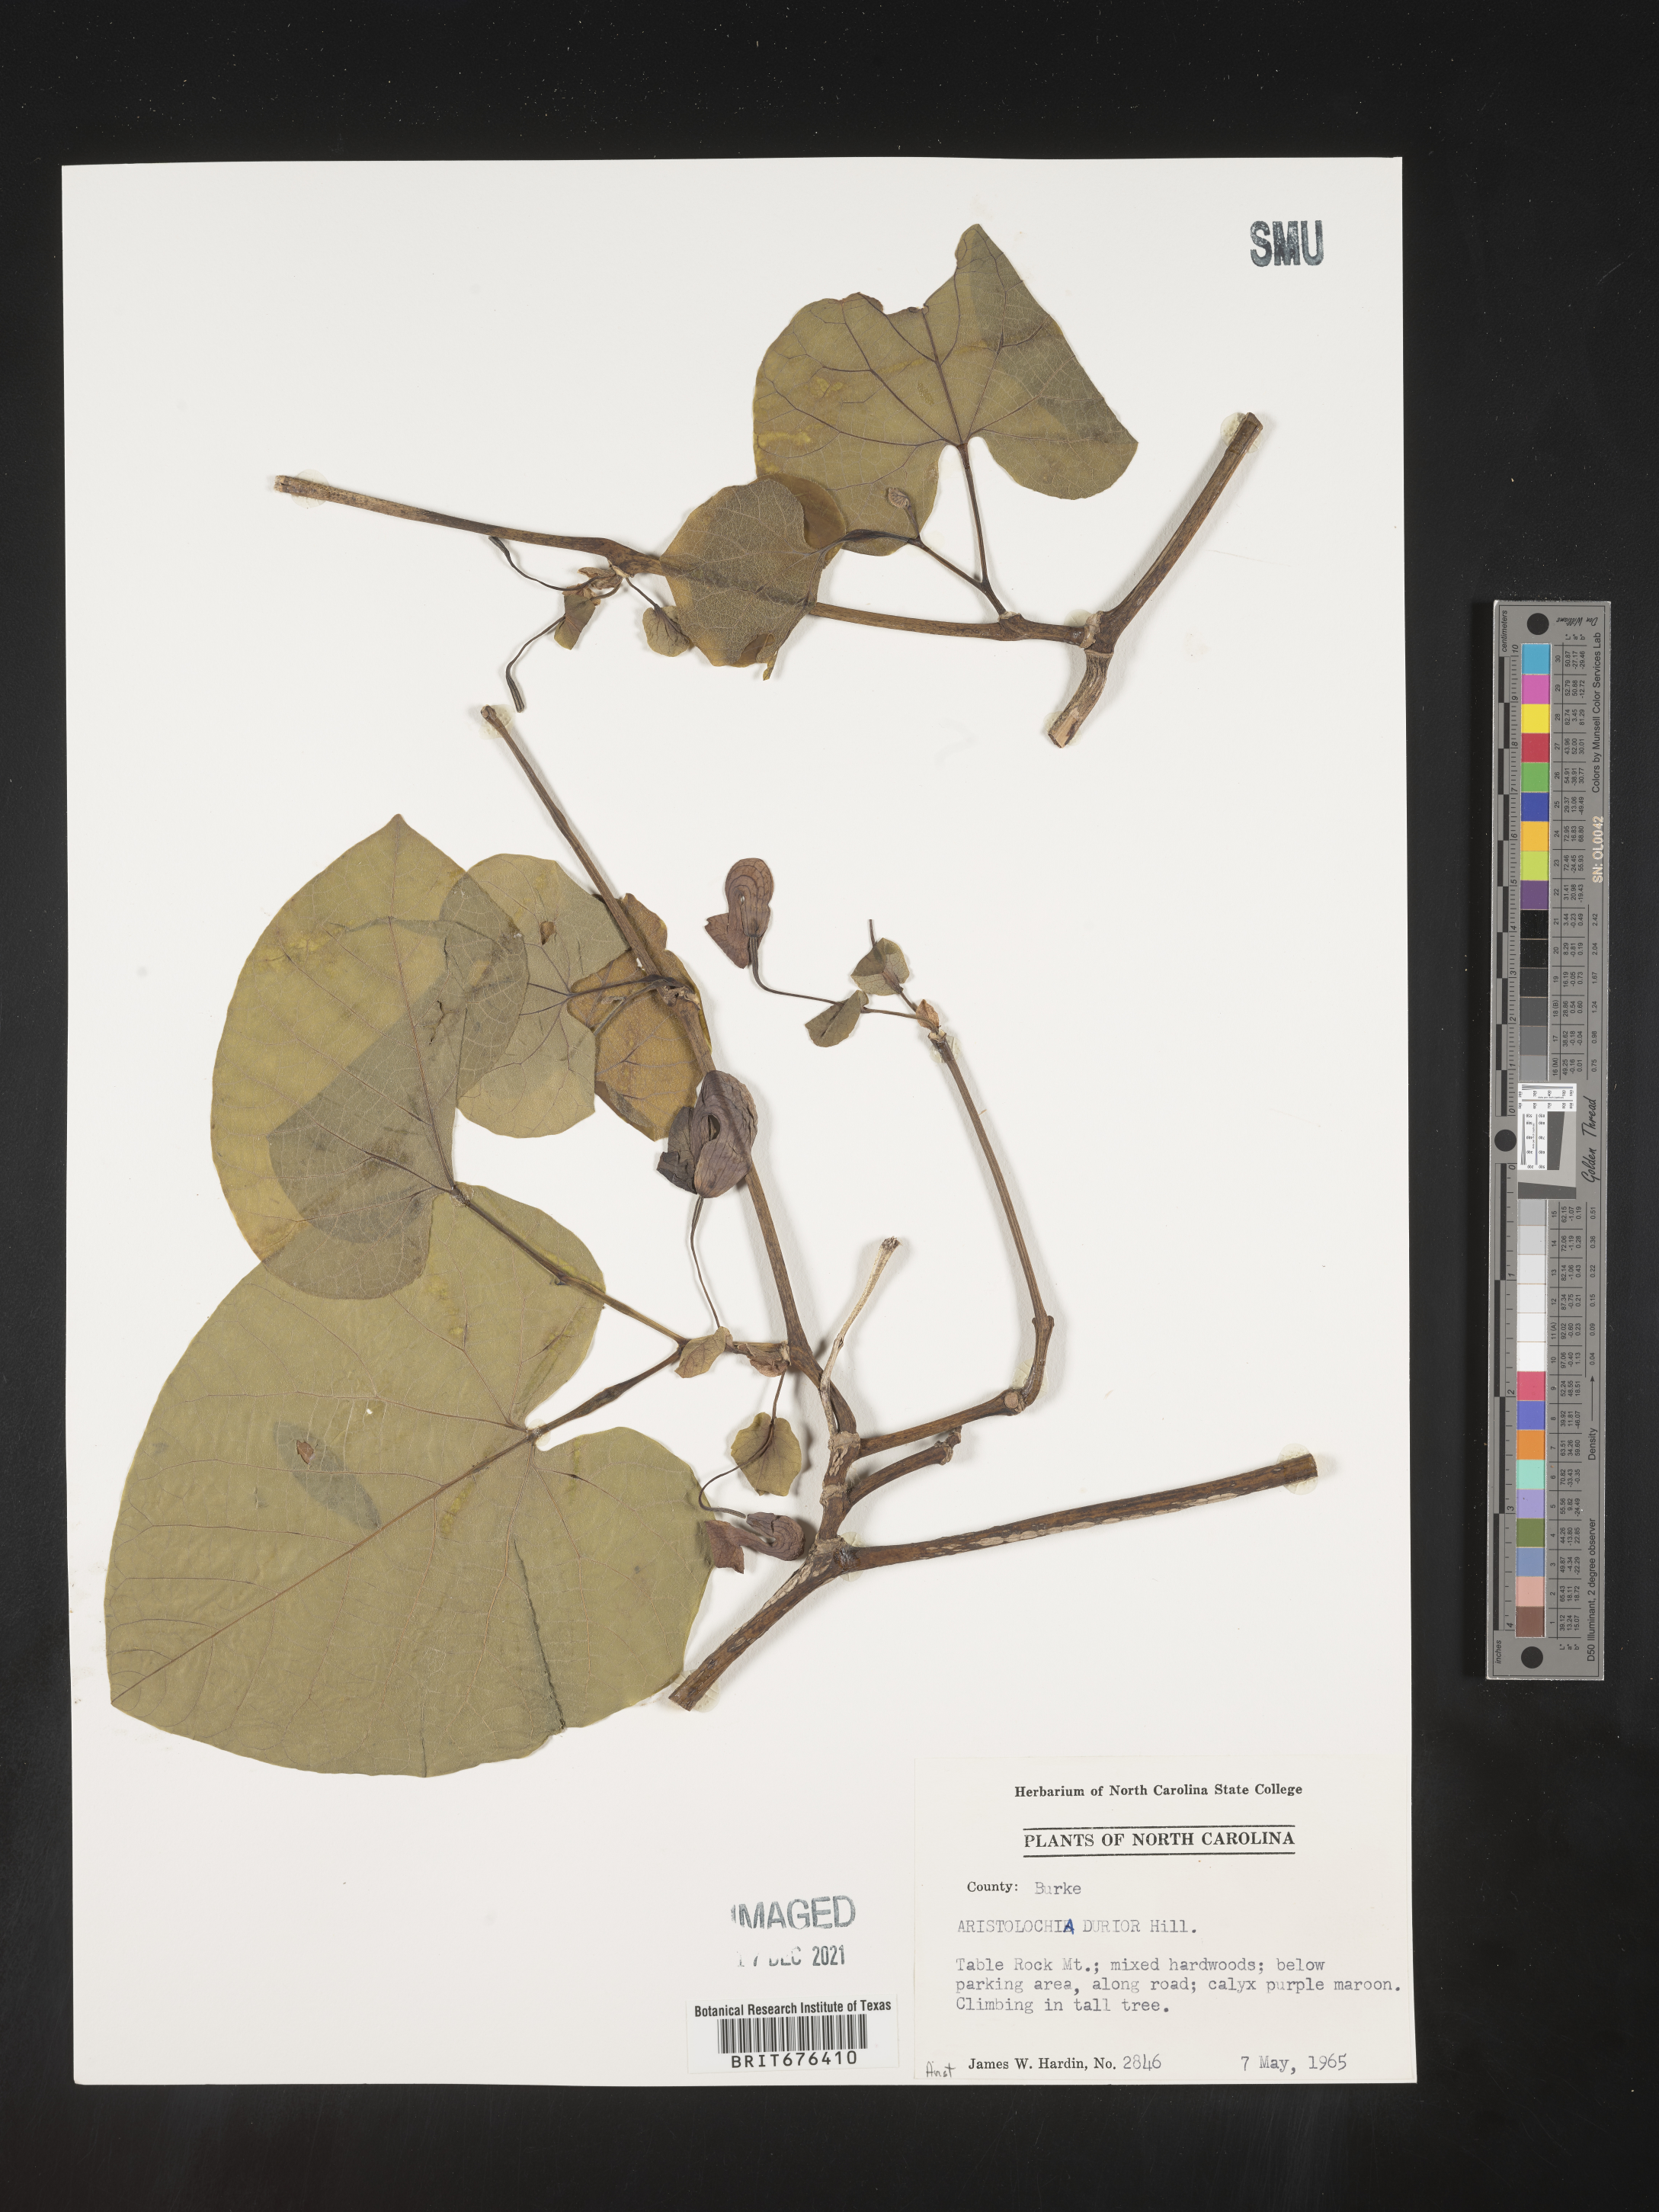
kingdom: Plantae
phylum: Tracheophyta
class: Magnoliopsida
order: Piperales
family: Aristolochiaceae
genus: Aristolochia
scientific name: Aristolochia
